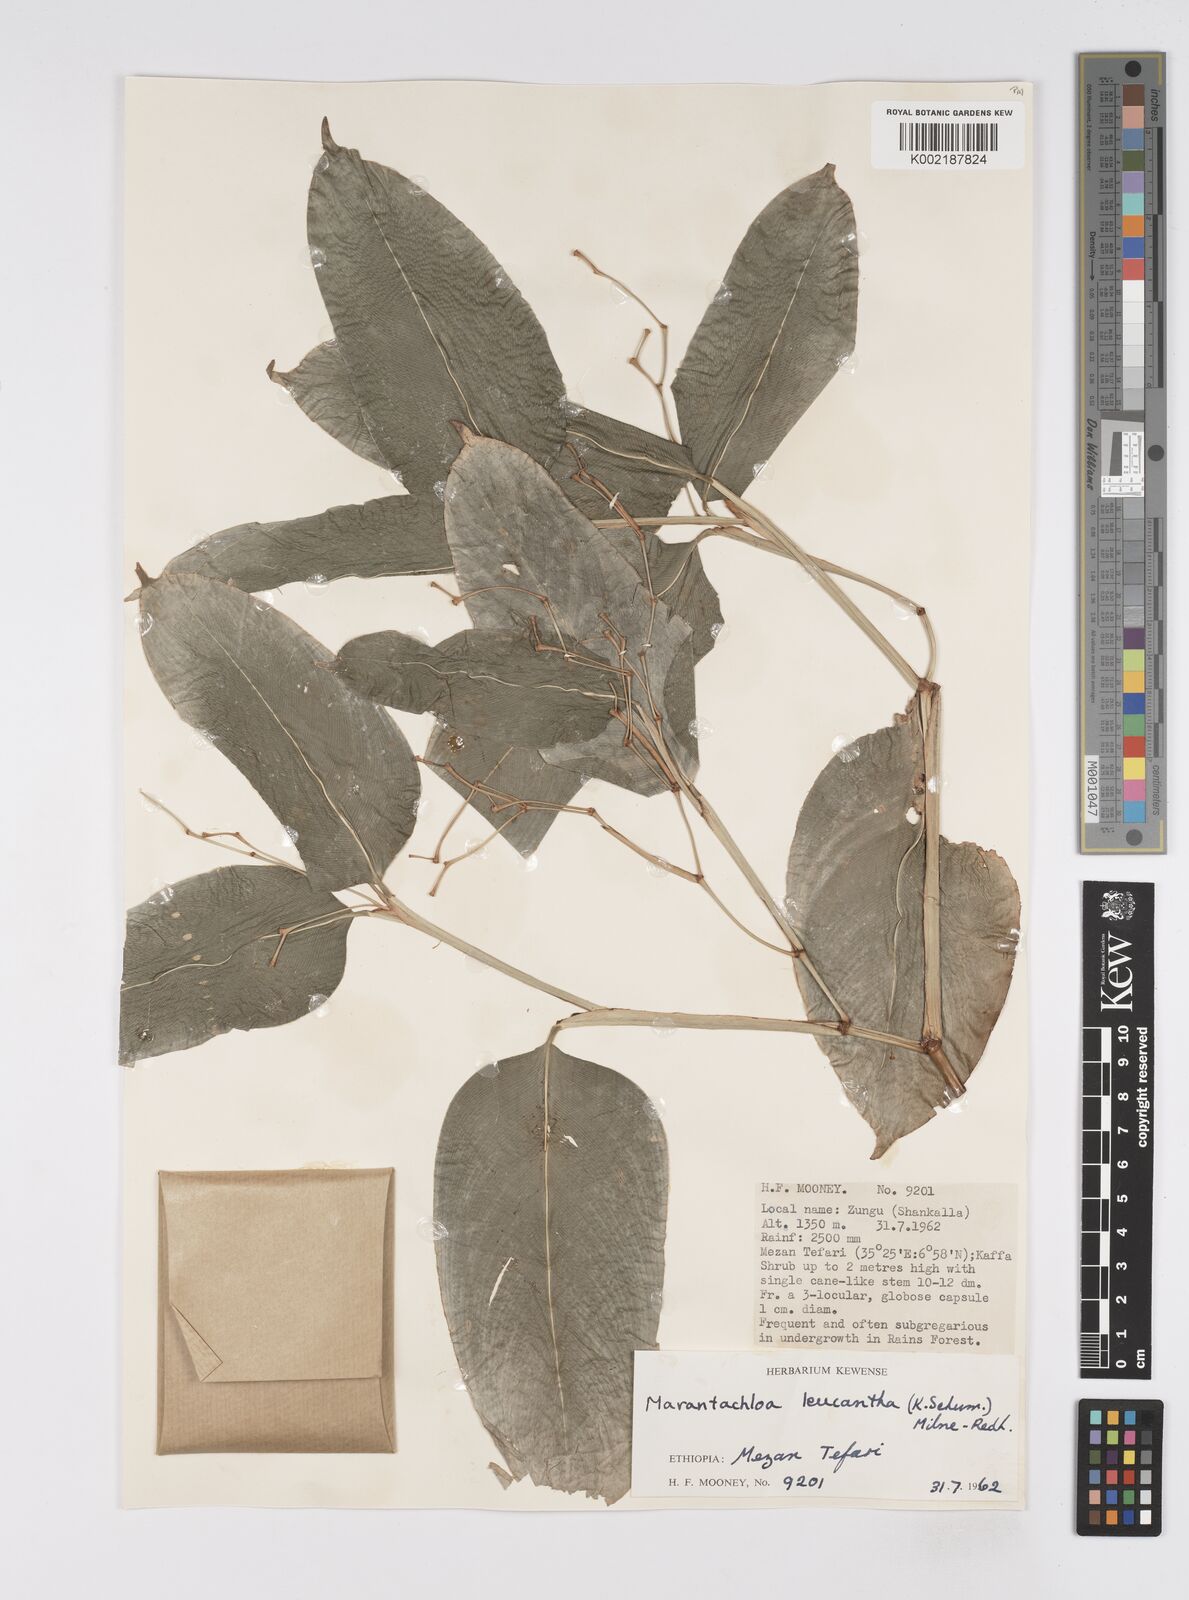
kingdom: Plantae
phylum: Tracheophyta
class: Liliopsida
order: Zingiberales
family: Marantaceae
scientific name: Marantaceae
